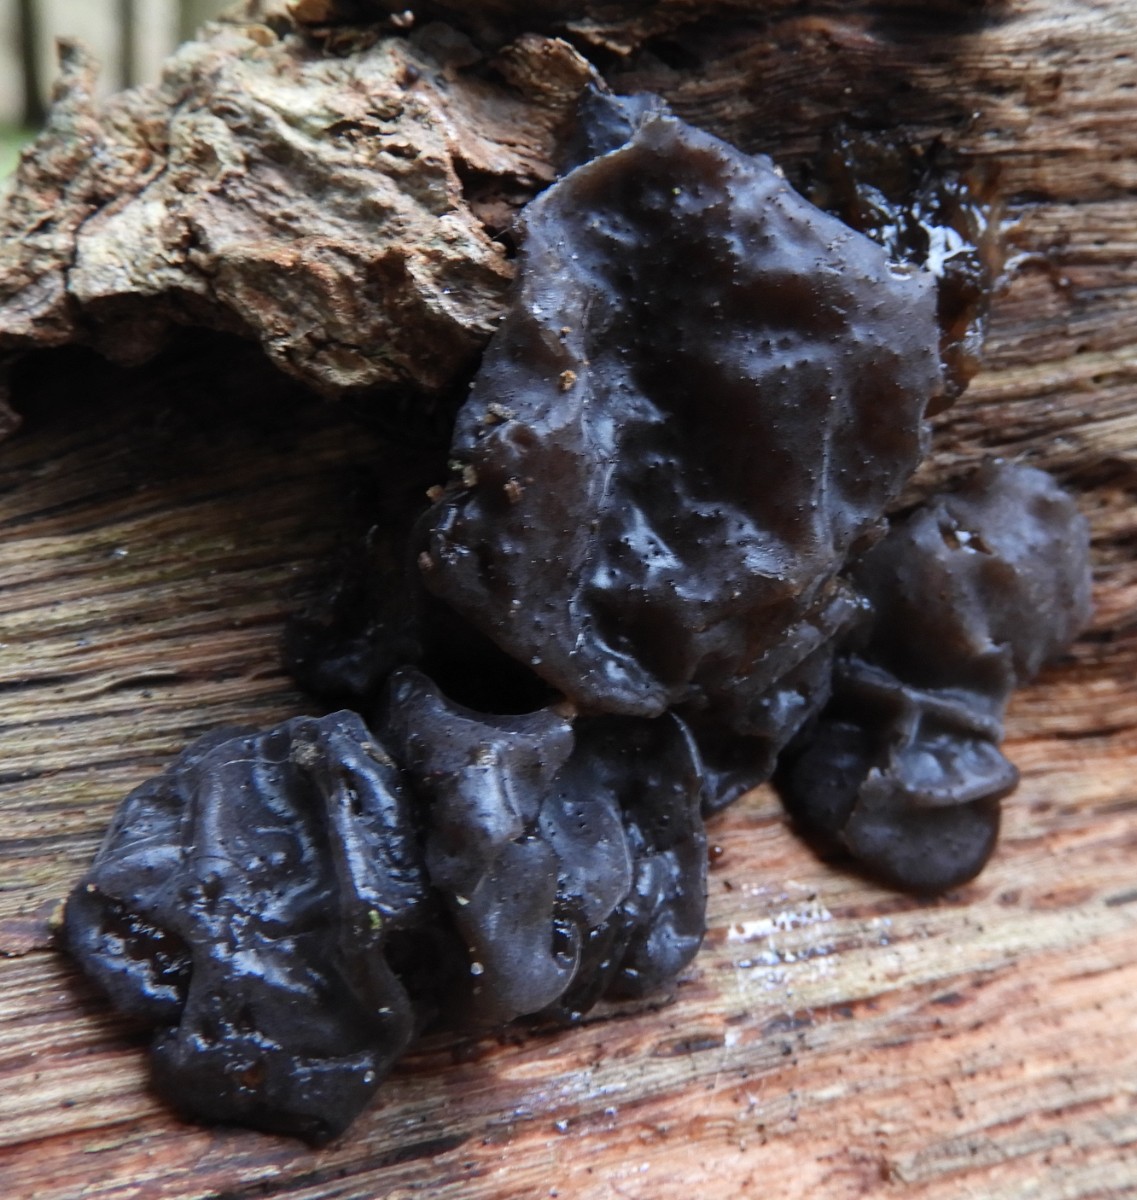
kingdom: Fungi
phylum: Basidiomycota
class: Agaricomycetes
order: Auriculariales
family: Auriculariaceae
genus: Exidia
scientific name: Exidia glandulosa
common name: ege-bævretop
